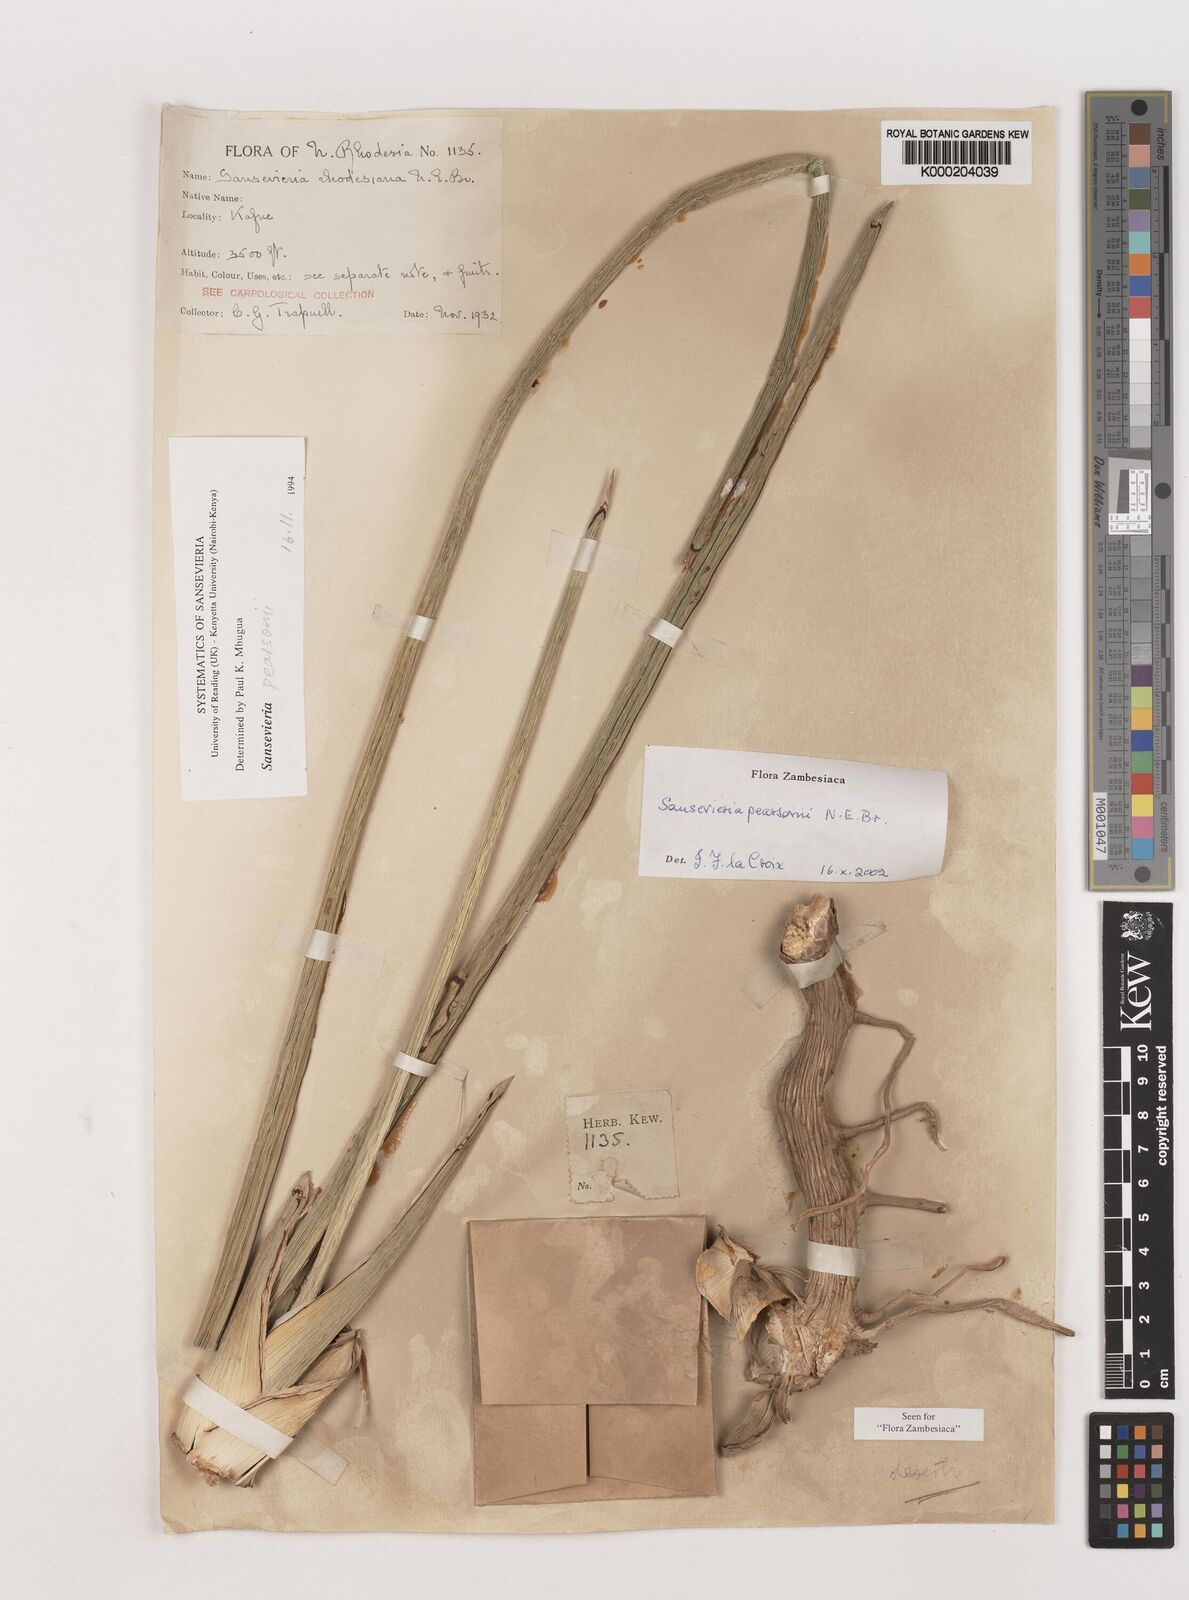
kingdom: Plantae
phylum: Tracheophyta
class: Liliopsida
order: Asparagales
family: Asparagaceae
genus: Dracaena
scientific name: Dracaena pearsonii
